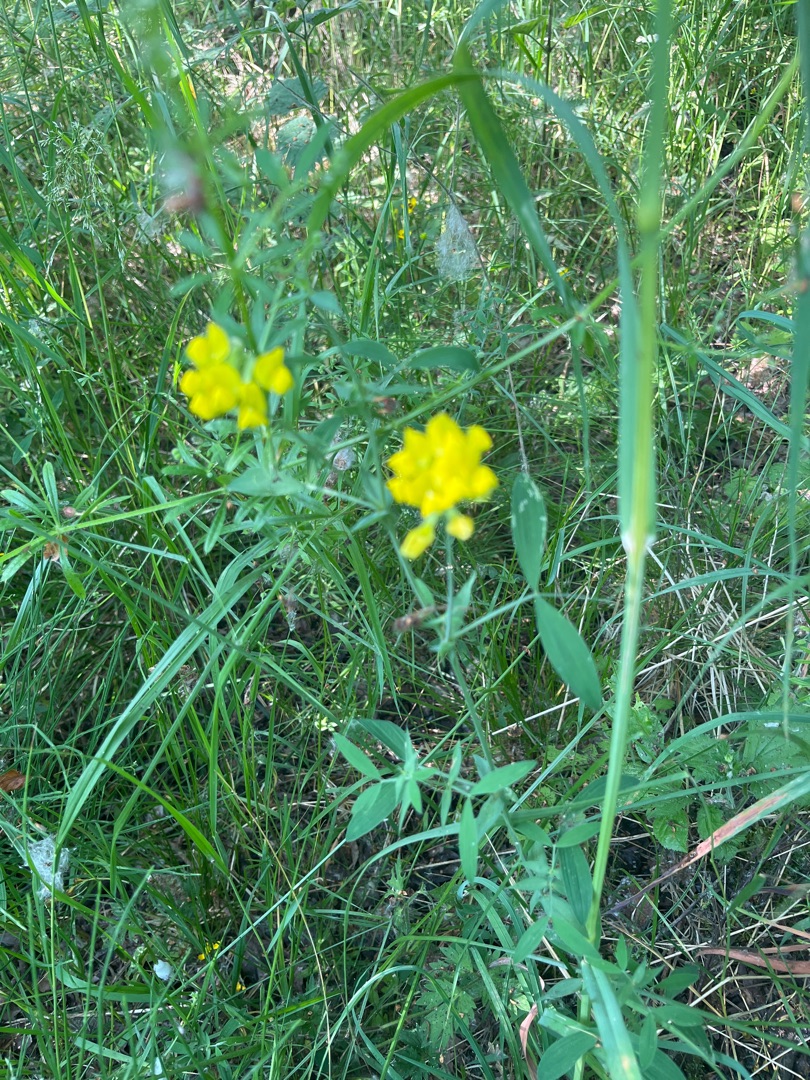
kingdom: Plantae
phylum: Tracheophyta
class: Magnoliopsida
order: Fabales
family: Fabaceae
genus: Lathyrus
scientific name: Lathyrus pratensis
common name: Gul fladbælg
